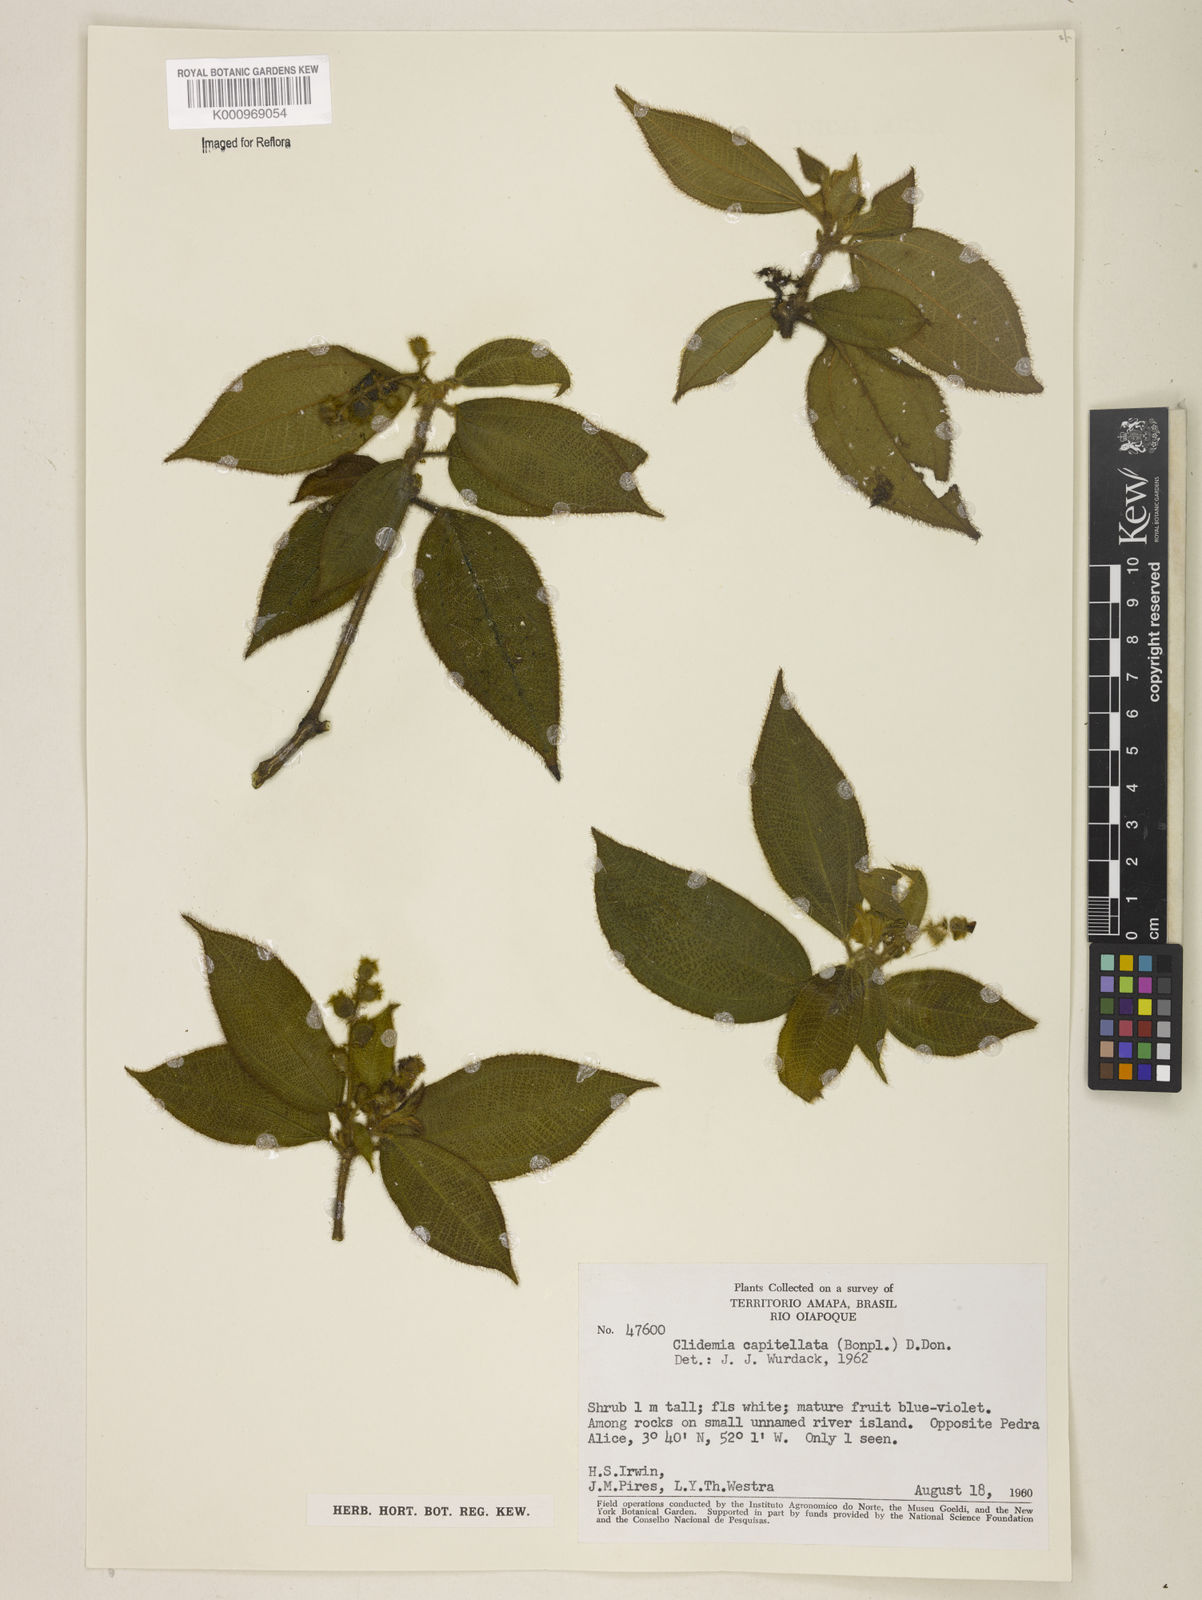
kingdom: Plantae
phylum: Tracheophyta
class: Magnoliopsida
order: Myrtales
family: Melastomataceae
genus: Miconia
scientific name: Miconia dependens
